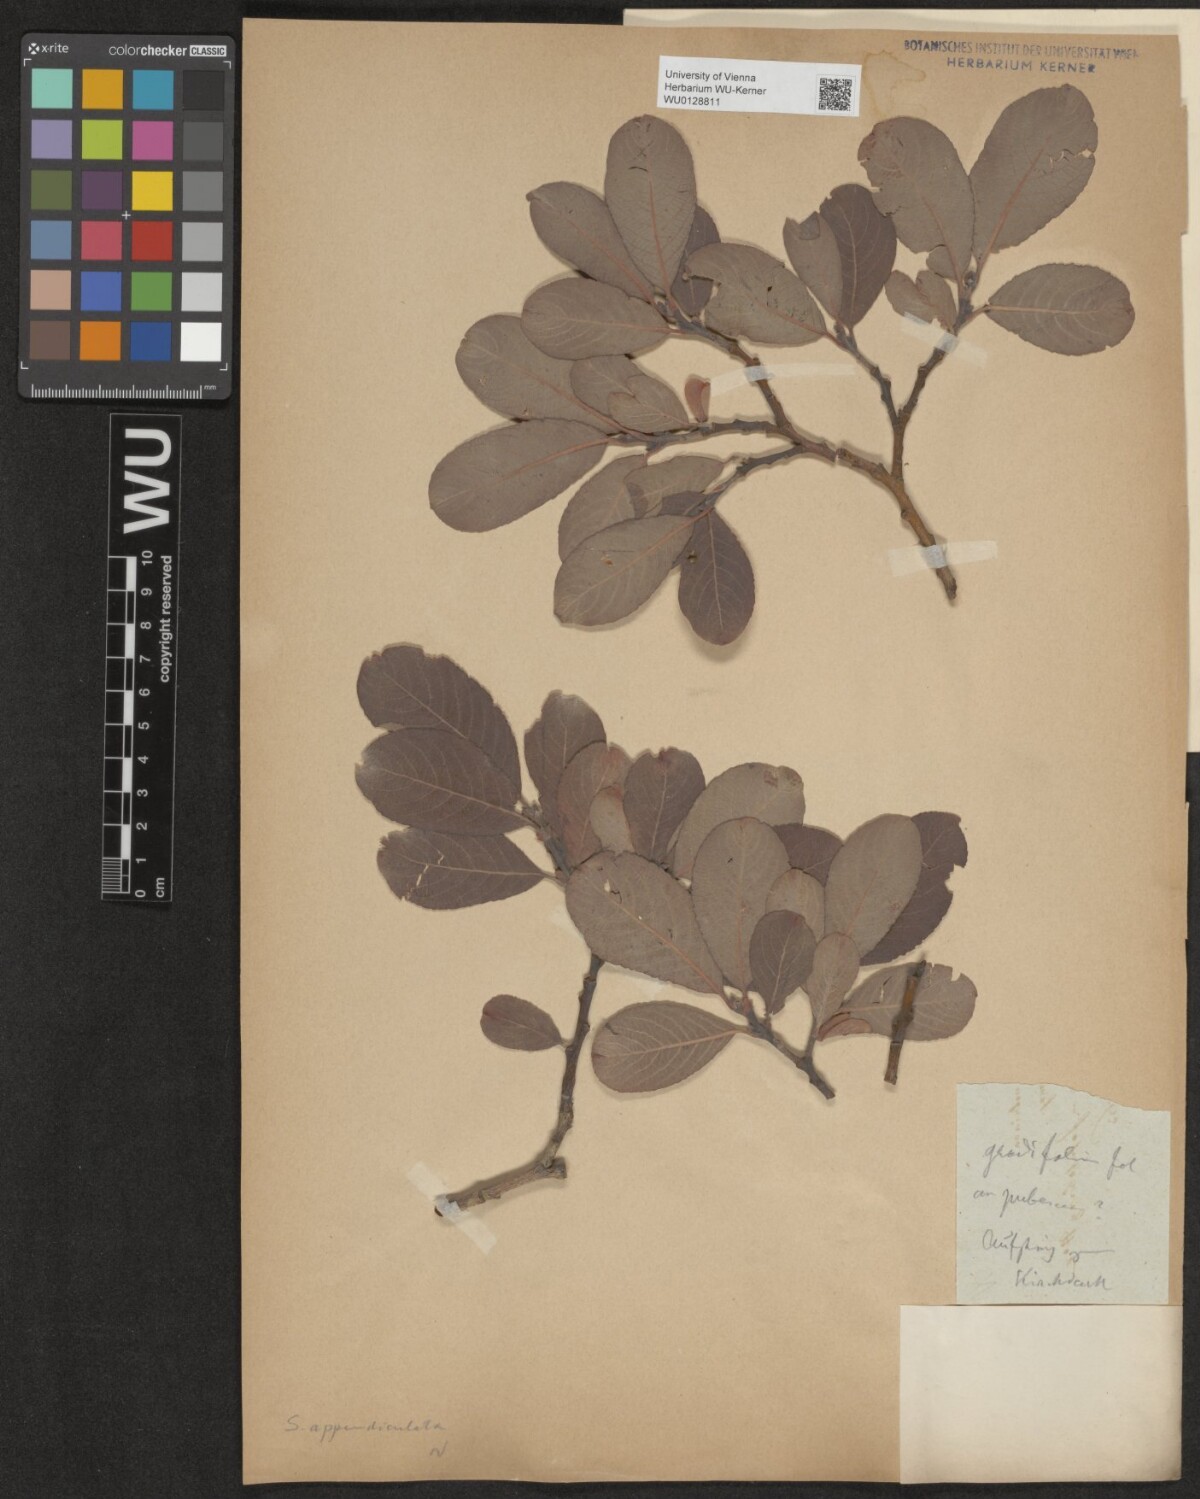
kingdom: Plantae
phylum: Tracheophyta
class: Magnoliopsida
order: Malpighiales
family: Salicaceae
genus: Salix
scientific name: Salix appendiculata
